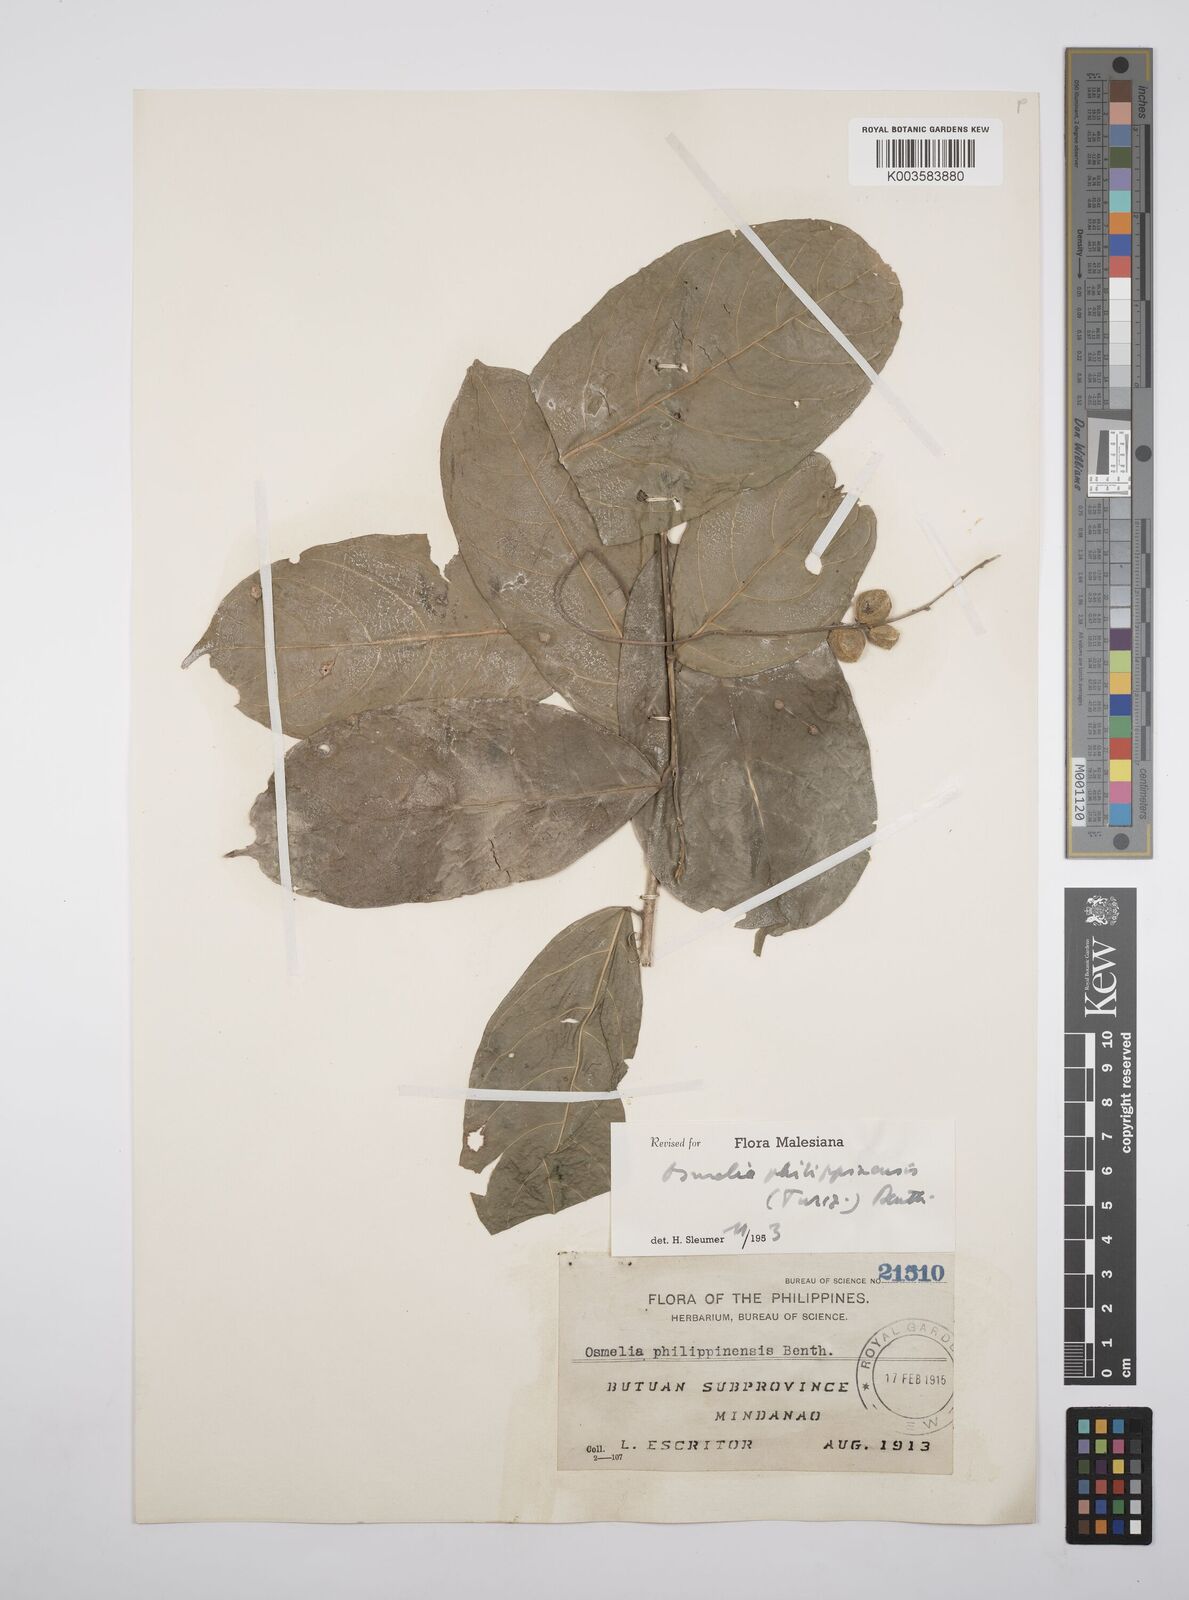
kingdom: Plantae
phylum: Tracheophyta
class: Magnoliopsida
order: Malpighiales
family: Salicaceae
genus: Osmelia
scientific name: Osmelia philippina
